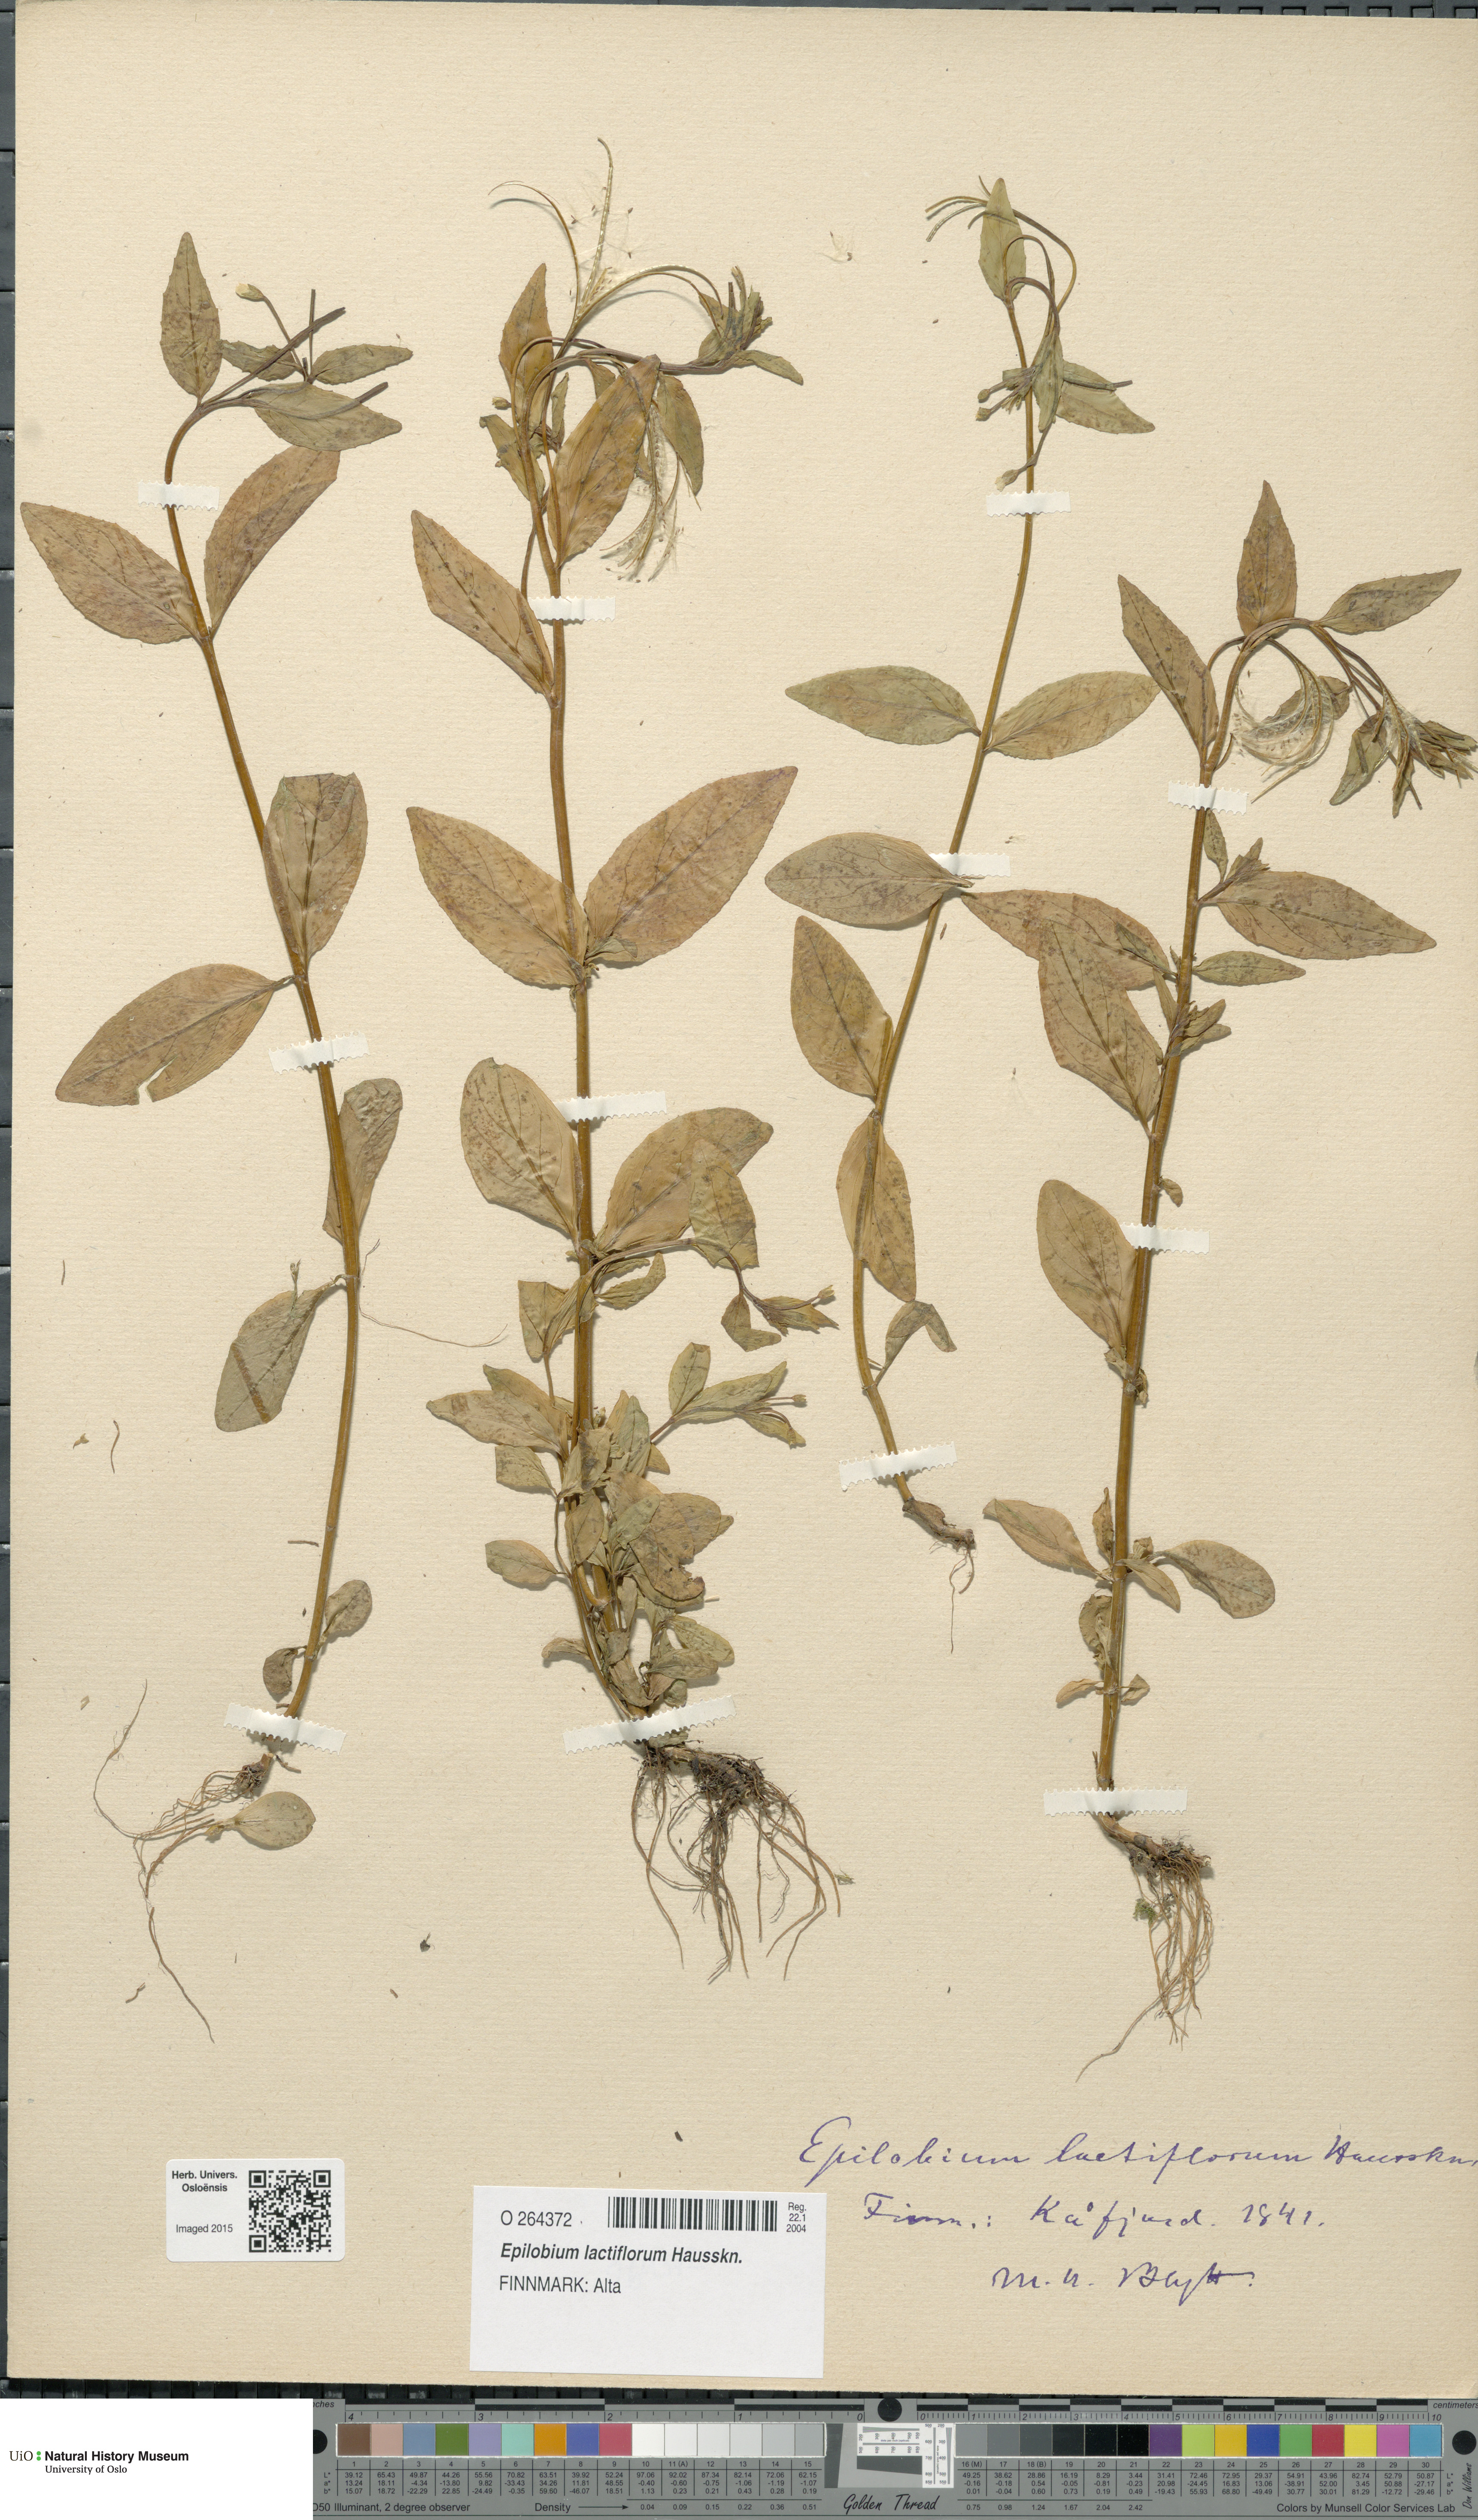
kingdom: Plantae
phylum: Tracheophyta
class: Magnoliopsida
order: Myrtales
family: Onagraceae
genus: Epilobium
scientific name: Epilobium lactiflorum
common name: Milkflower willowherb
